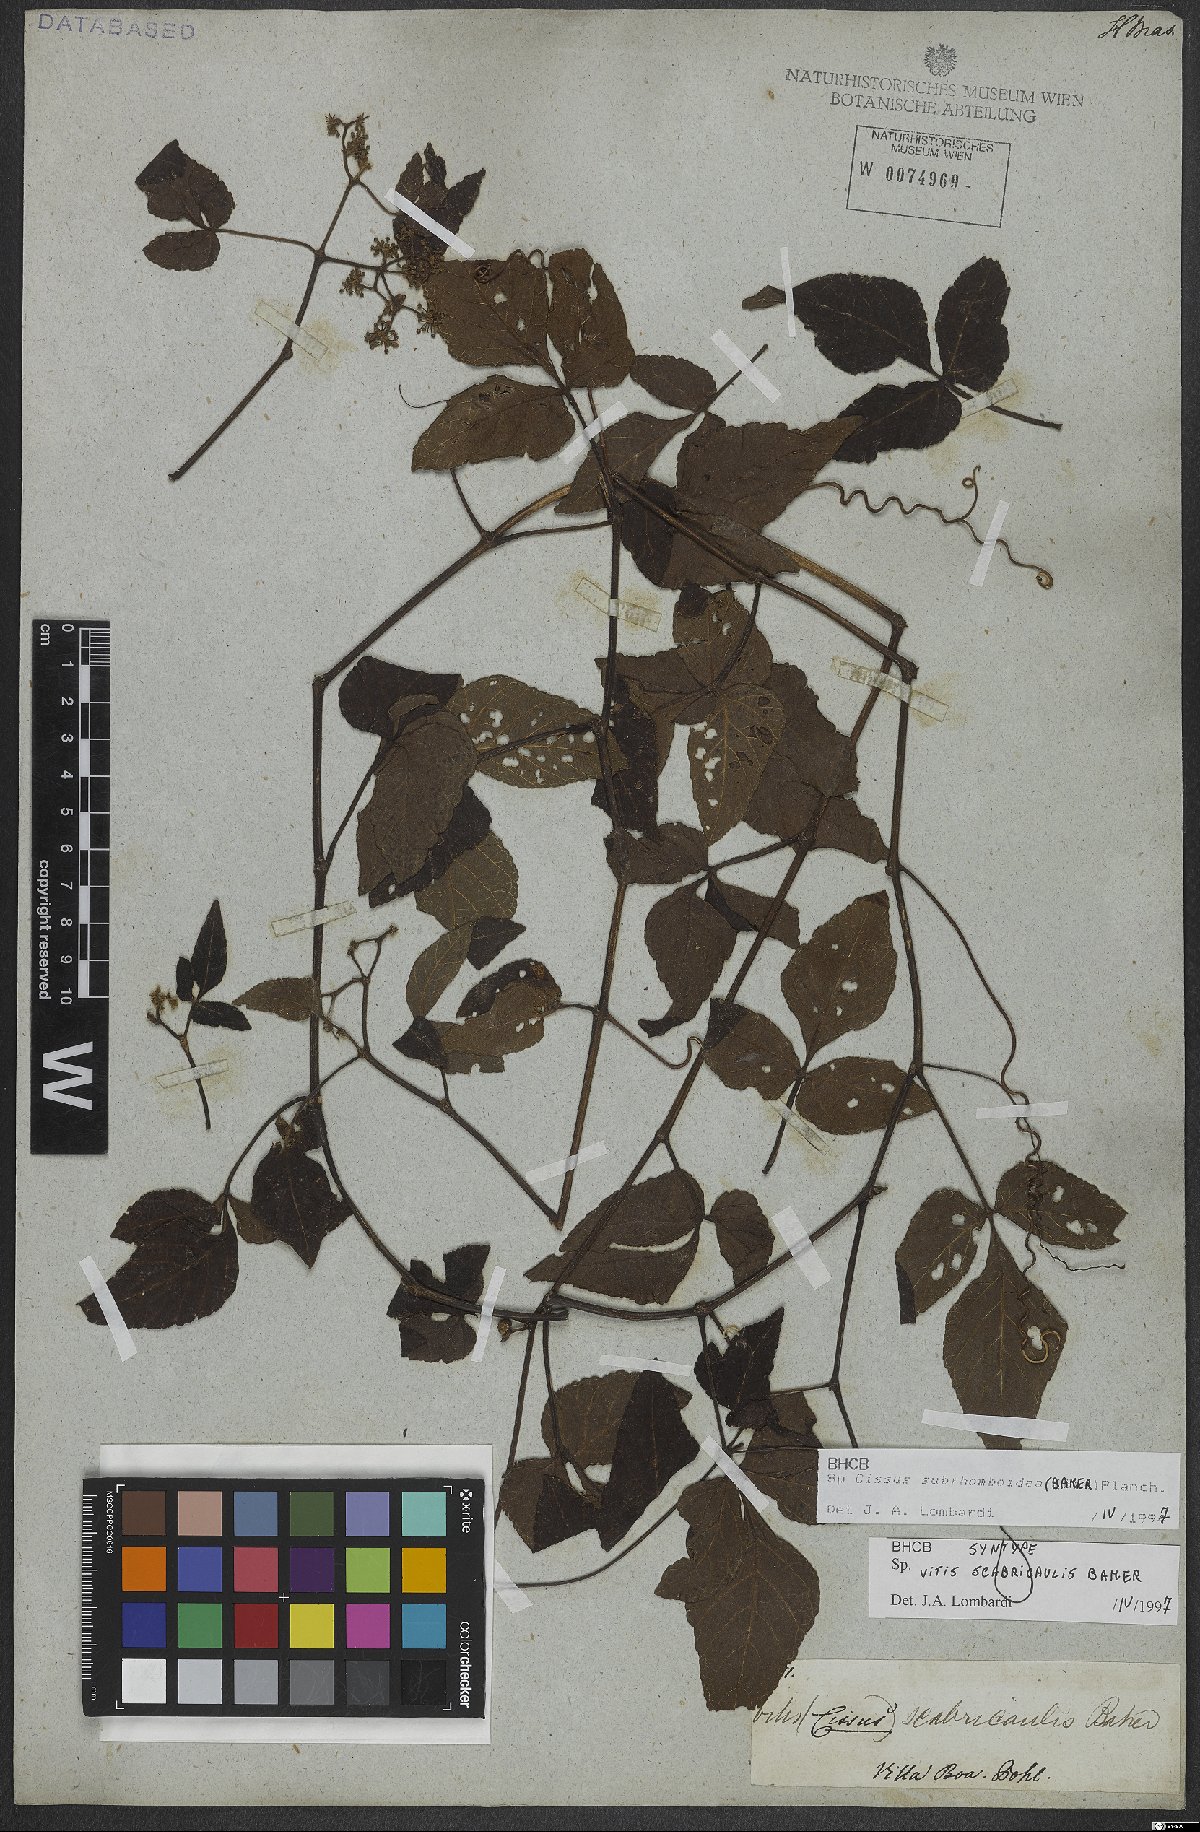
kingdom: Plantae
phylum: Tracheophyta
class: Magnoliopsida
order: Vitales
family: Vitaceae
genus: Cissus
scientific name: Cissus subrhomboidea
